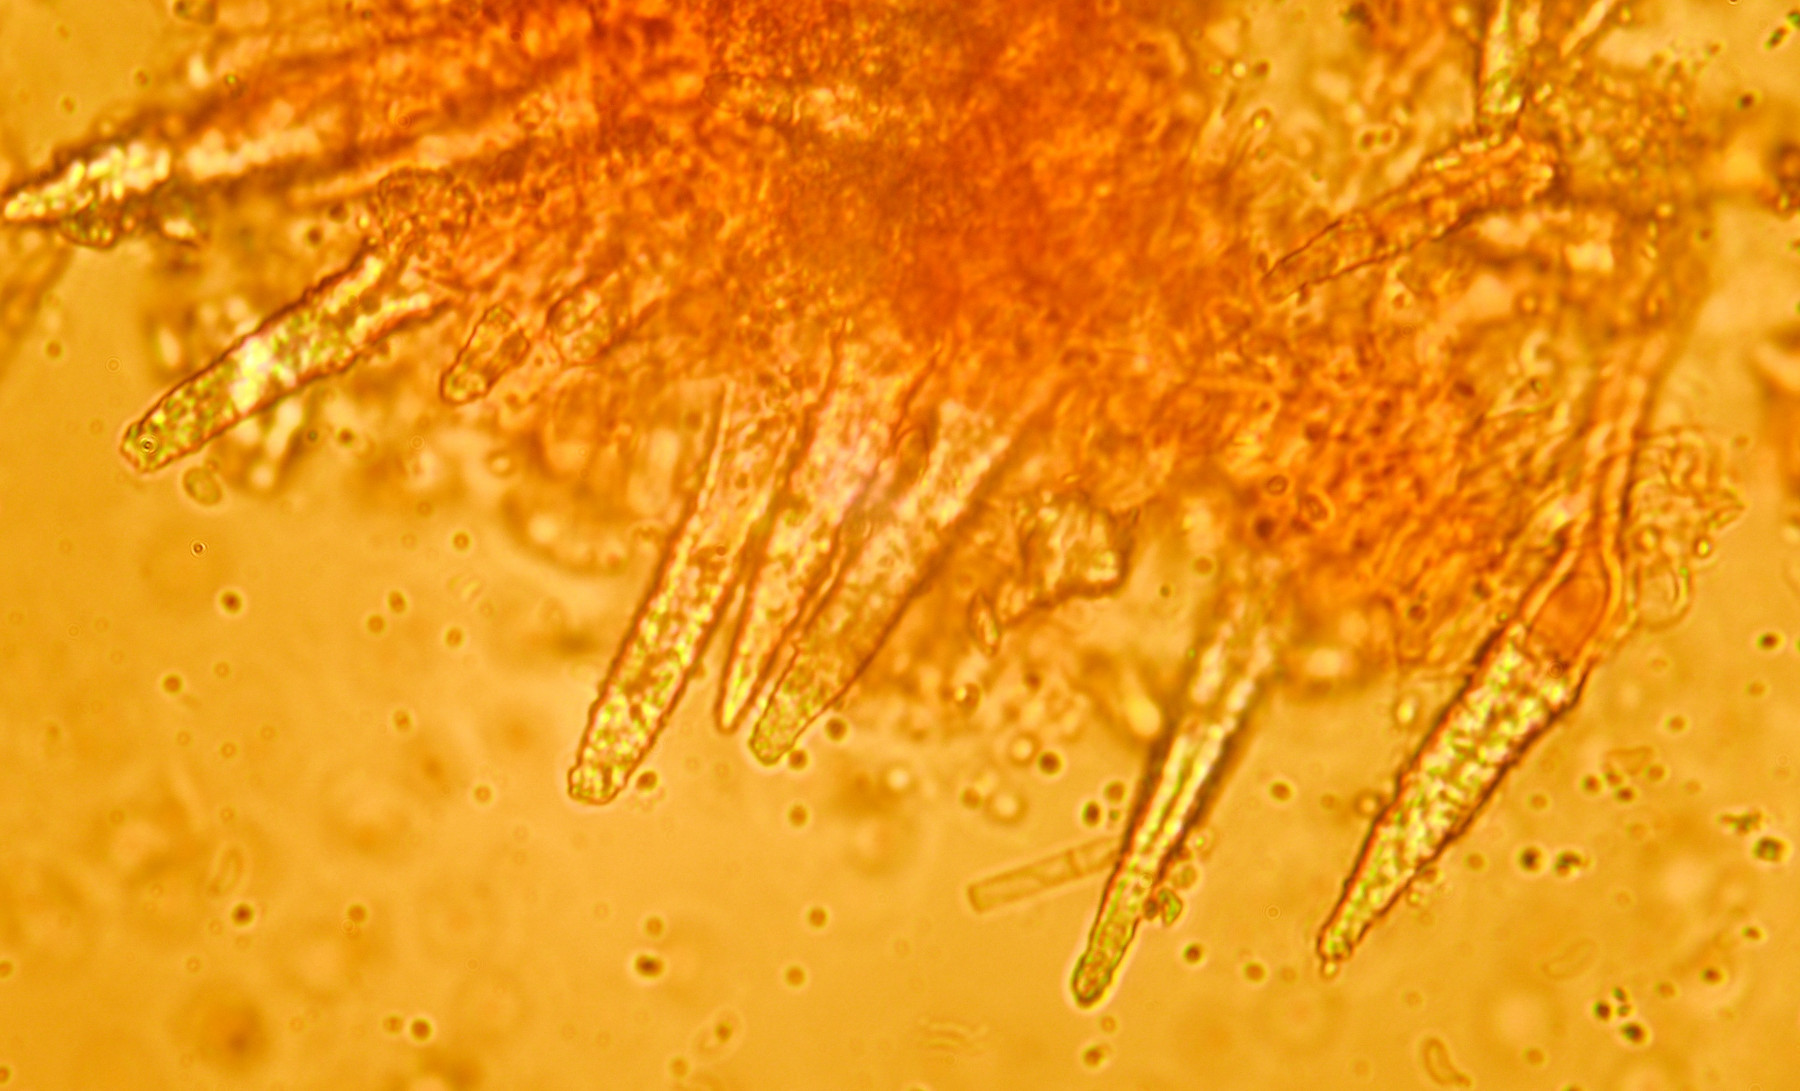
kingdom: Fungi
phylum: Basidiomycota
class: Agaricomycetes
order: Polyporales
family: Meruliaceae
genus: Scopuloides
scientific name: Scopuloides rimosa
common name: dughinde
